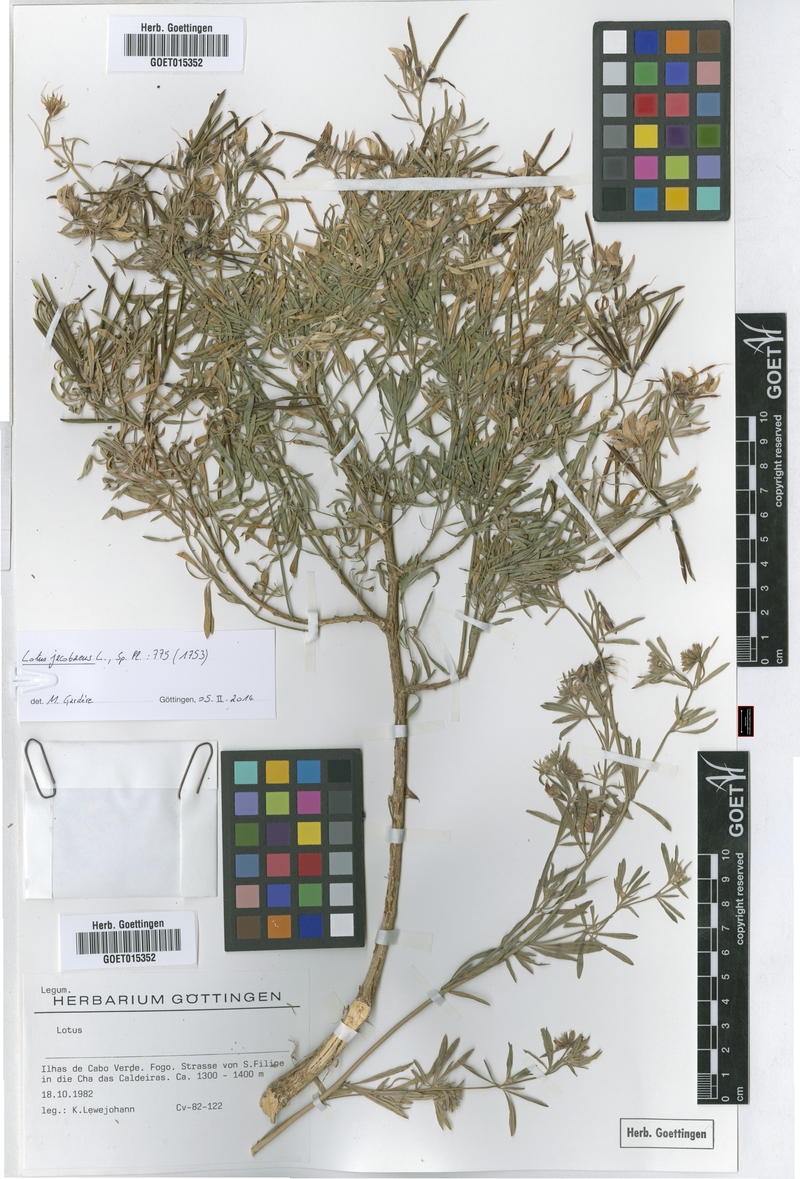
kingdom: Plantae
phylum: Tracheophyta
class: Magnoliopsida
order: Fabales
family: Fabaceae
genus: Lotus
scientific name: Lotus jacobaeus
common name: St. james's trefoil
